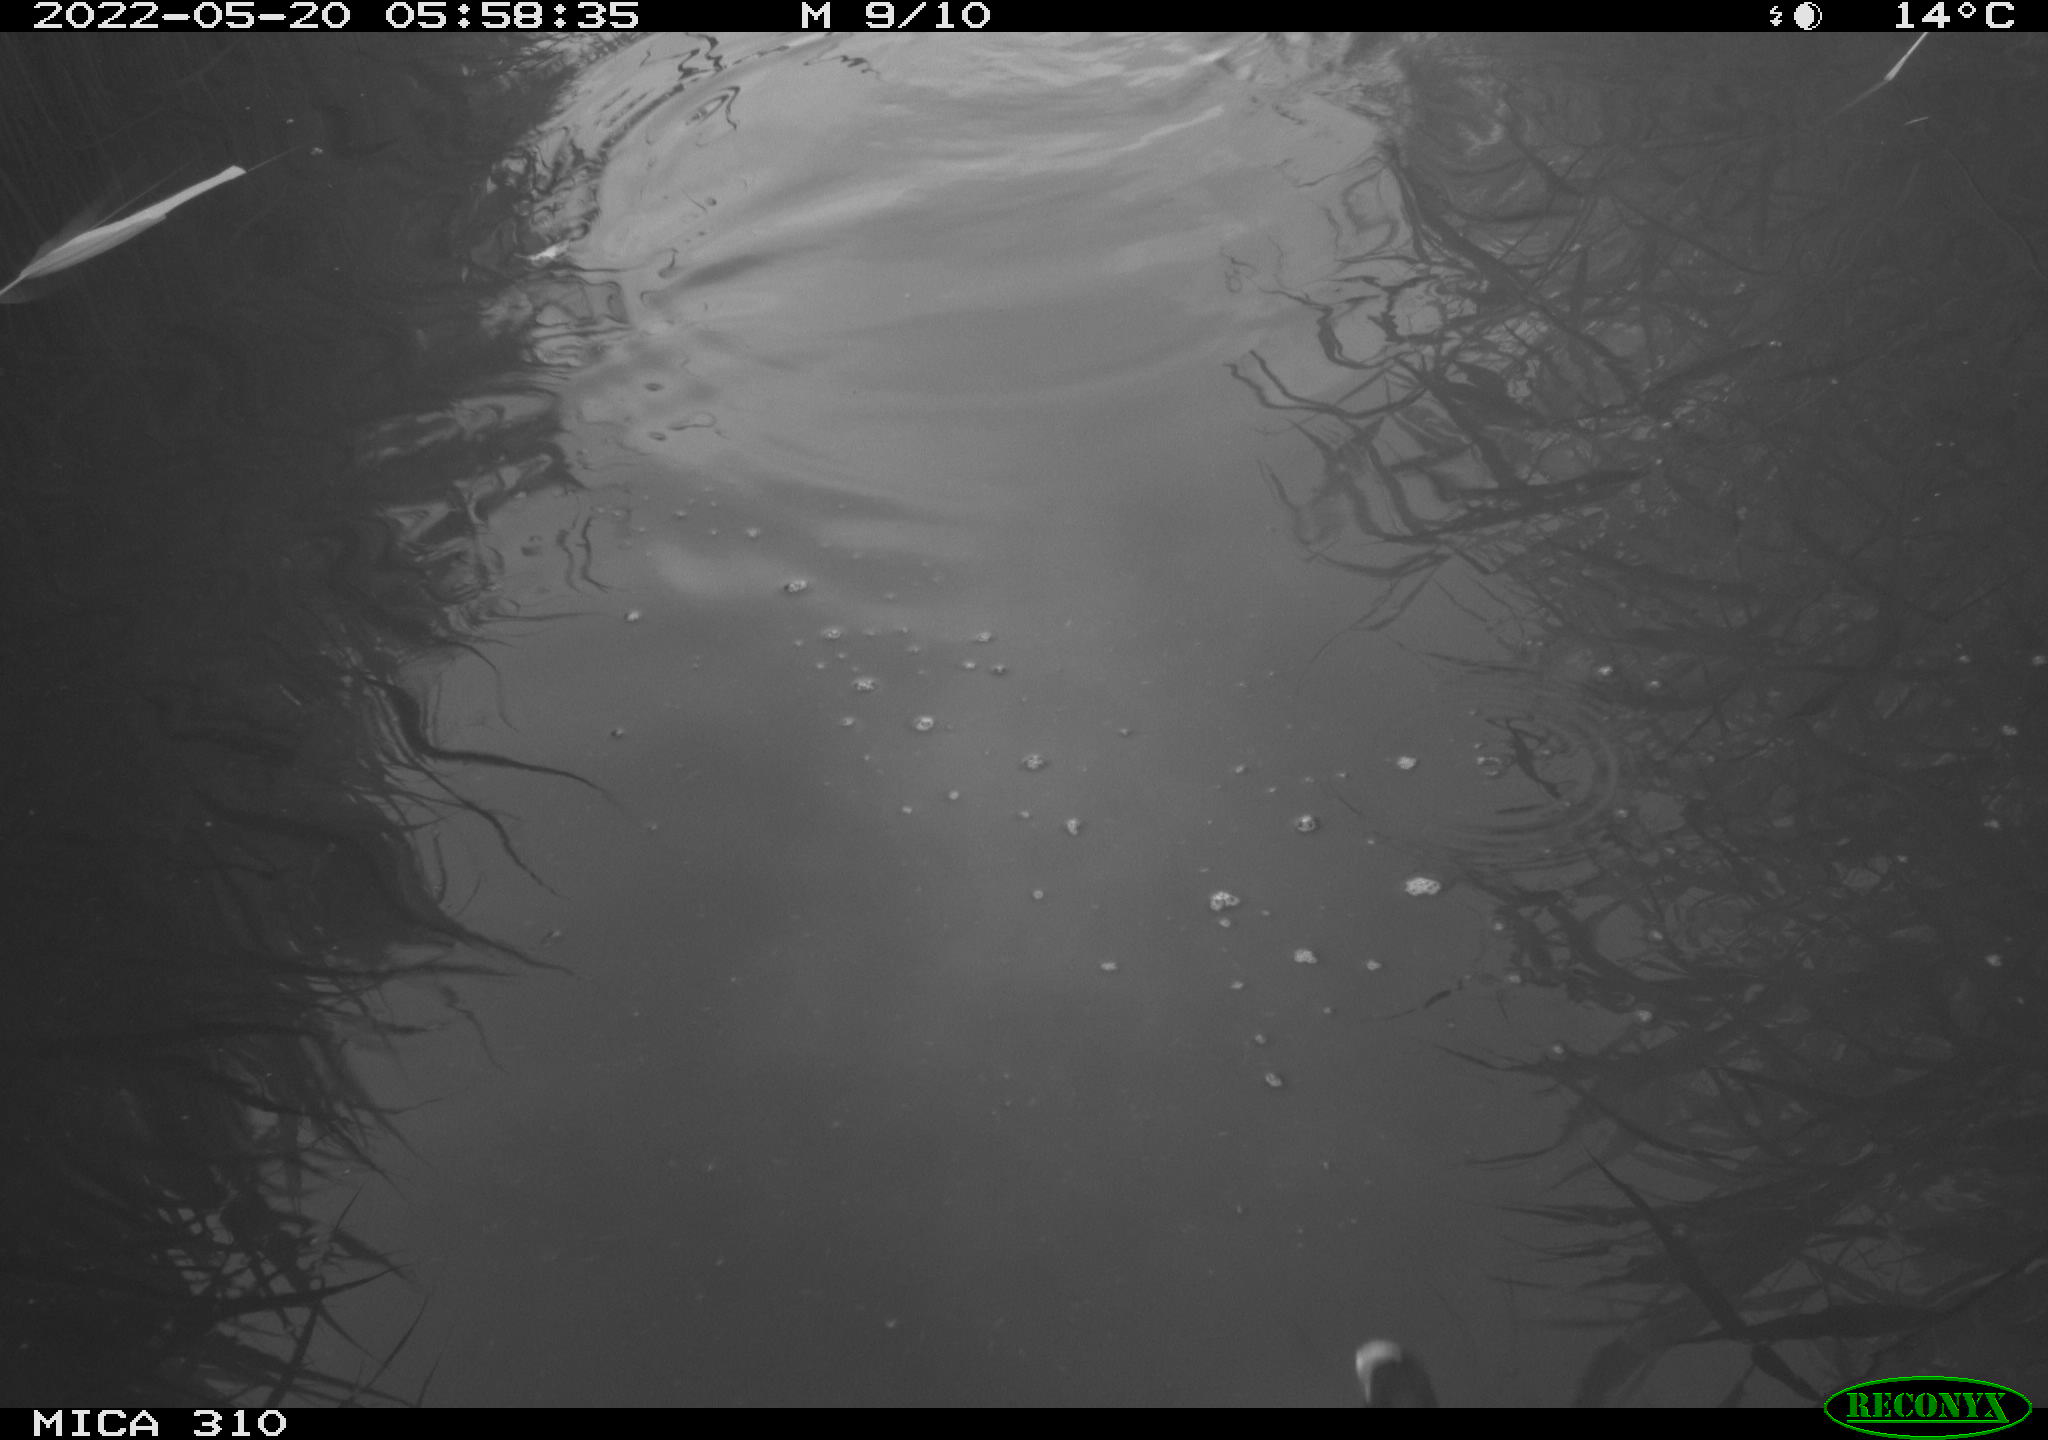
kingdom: Animalia
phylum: Chordata
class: Aves
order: Gruiformes
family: Rallidae
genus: Fulica
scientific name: Fulica atra
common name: Eurasian coot
